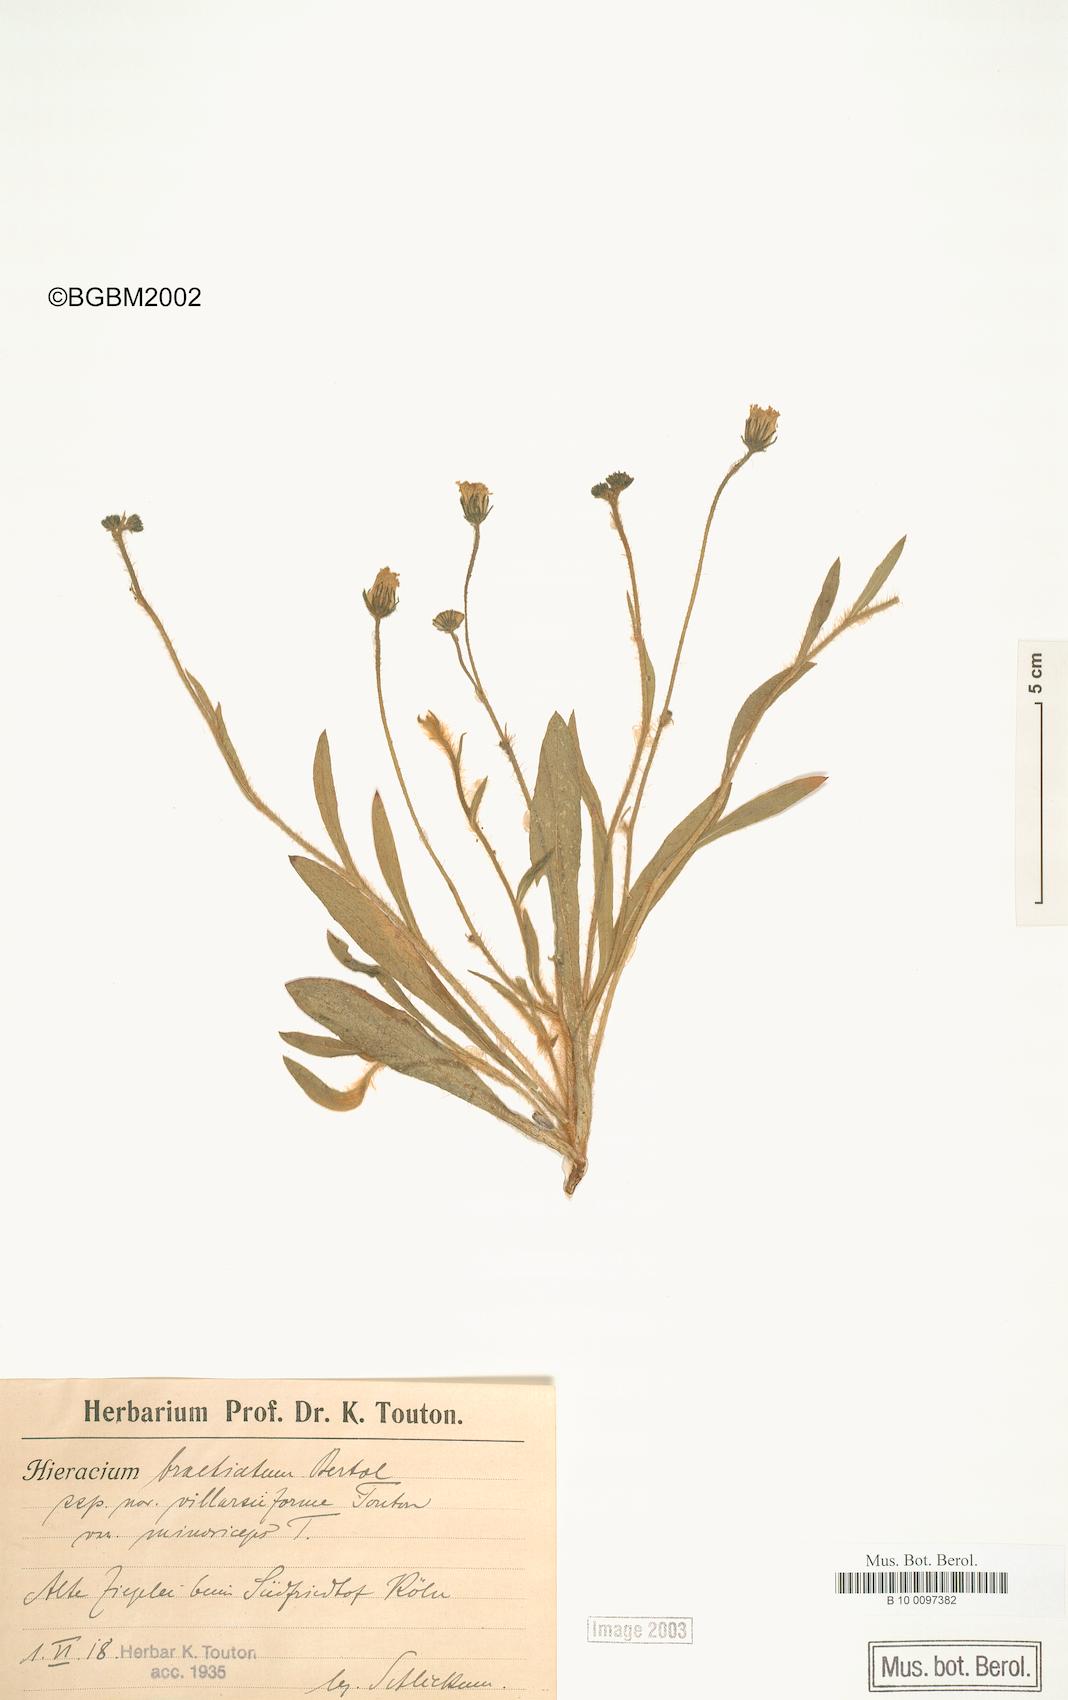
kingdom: Plantae
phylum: Tracheophyta
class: Magnoliopsida
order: Asterales
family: Asteraceae
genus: Pilosella
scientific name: Pilosella acutifolia
